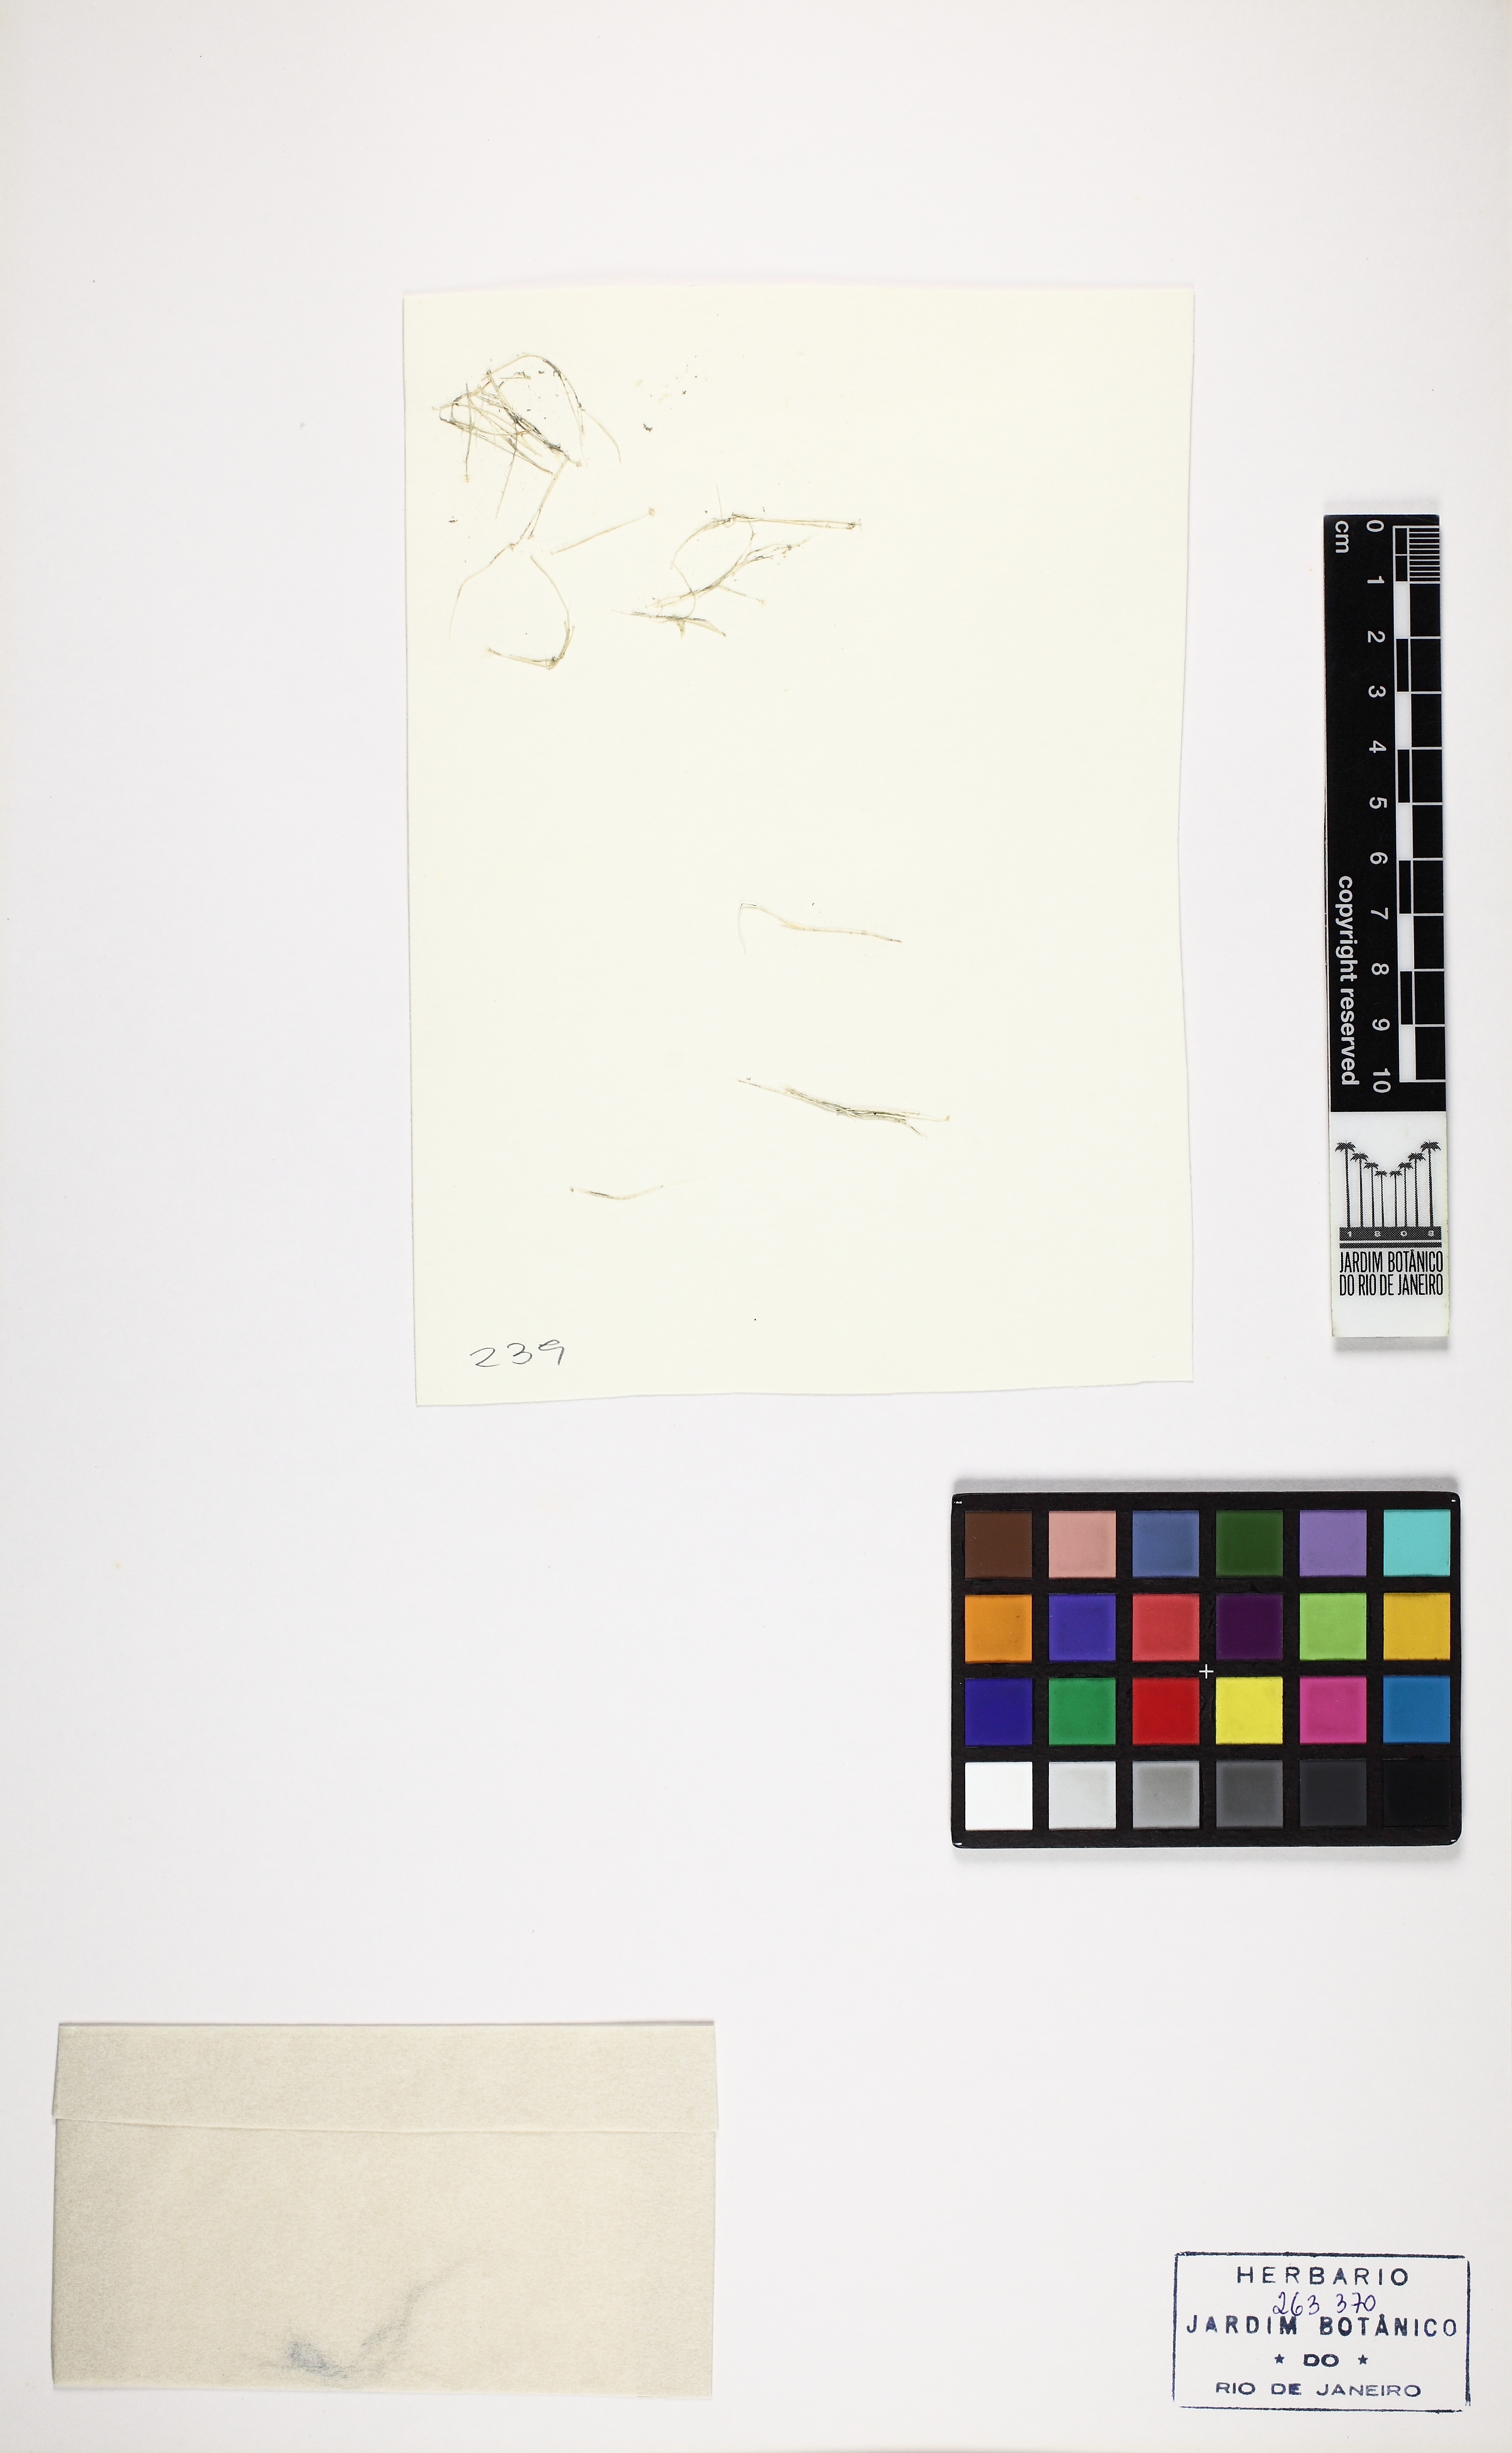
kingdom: Plantae
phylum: Chlorophyta
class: Ulvophyceae
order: Dasycladales
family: Polyphysaceae
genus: Acetabularia
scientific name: Acetabularia caliculus
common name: Green mermaid's wine glass
